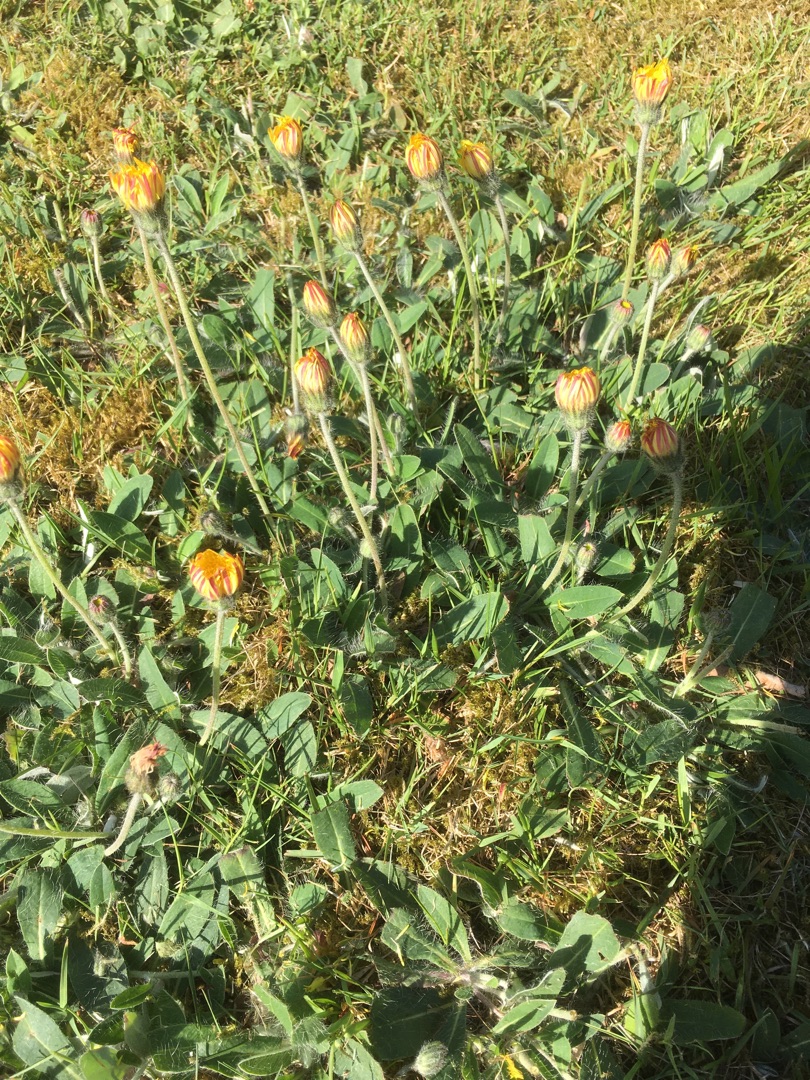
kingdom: Plantae
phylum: Tracheophyta
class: Magnoliopsida
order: Asterales
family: Asteraceae
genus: Pilosella
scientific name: Pilosella officinarum
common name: Håret høgeurt
